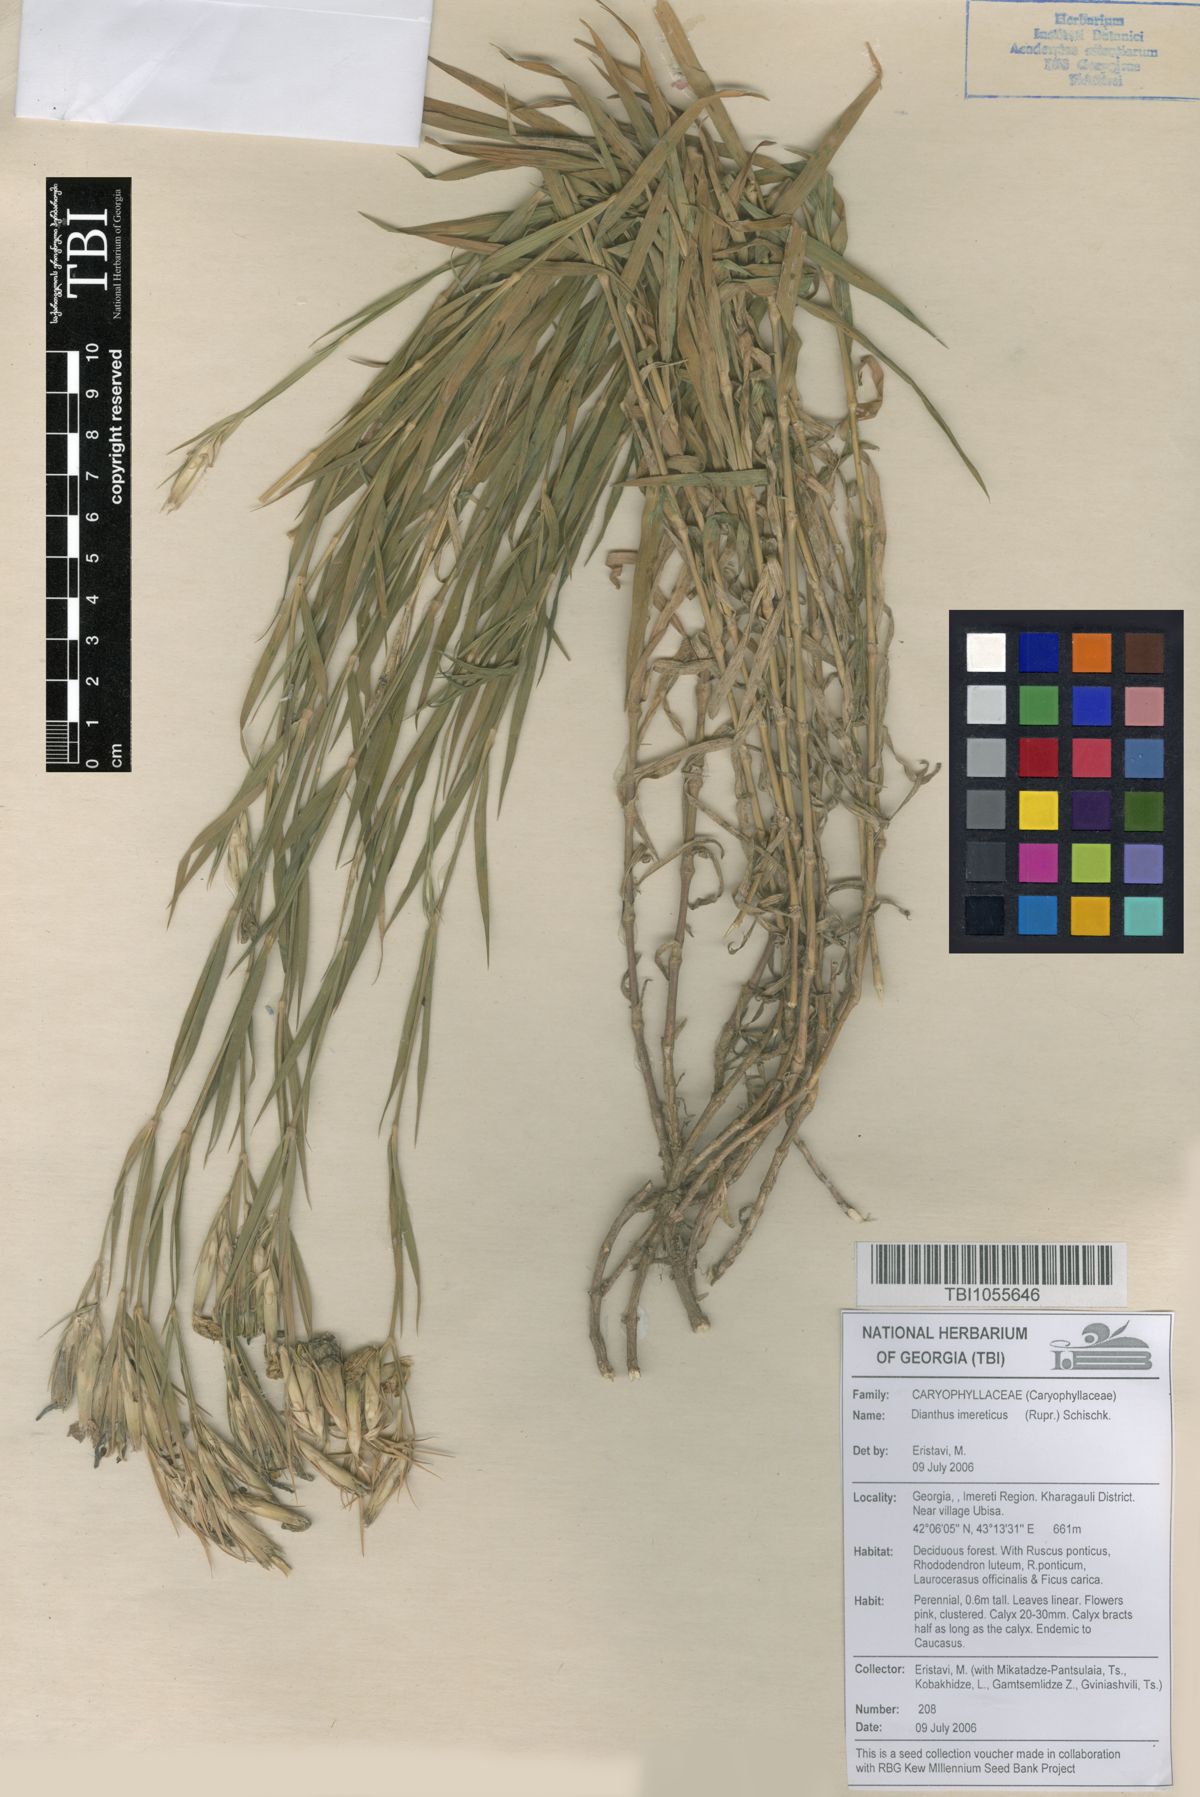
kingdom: Plantae
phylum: Tracheophyta
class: Magnoliopsida
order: Caryophyllales
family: Caryophyllaceae
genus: Dianthus
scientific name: Dianthus imereticus
